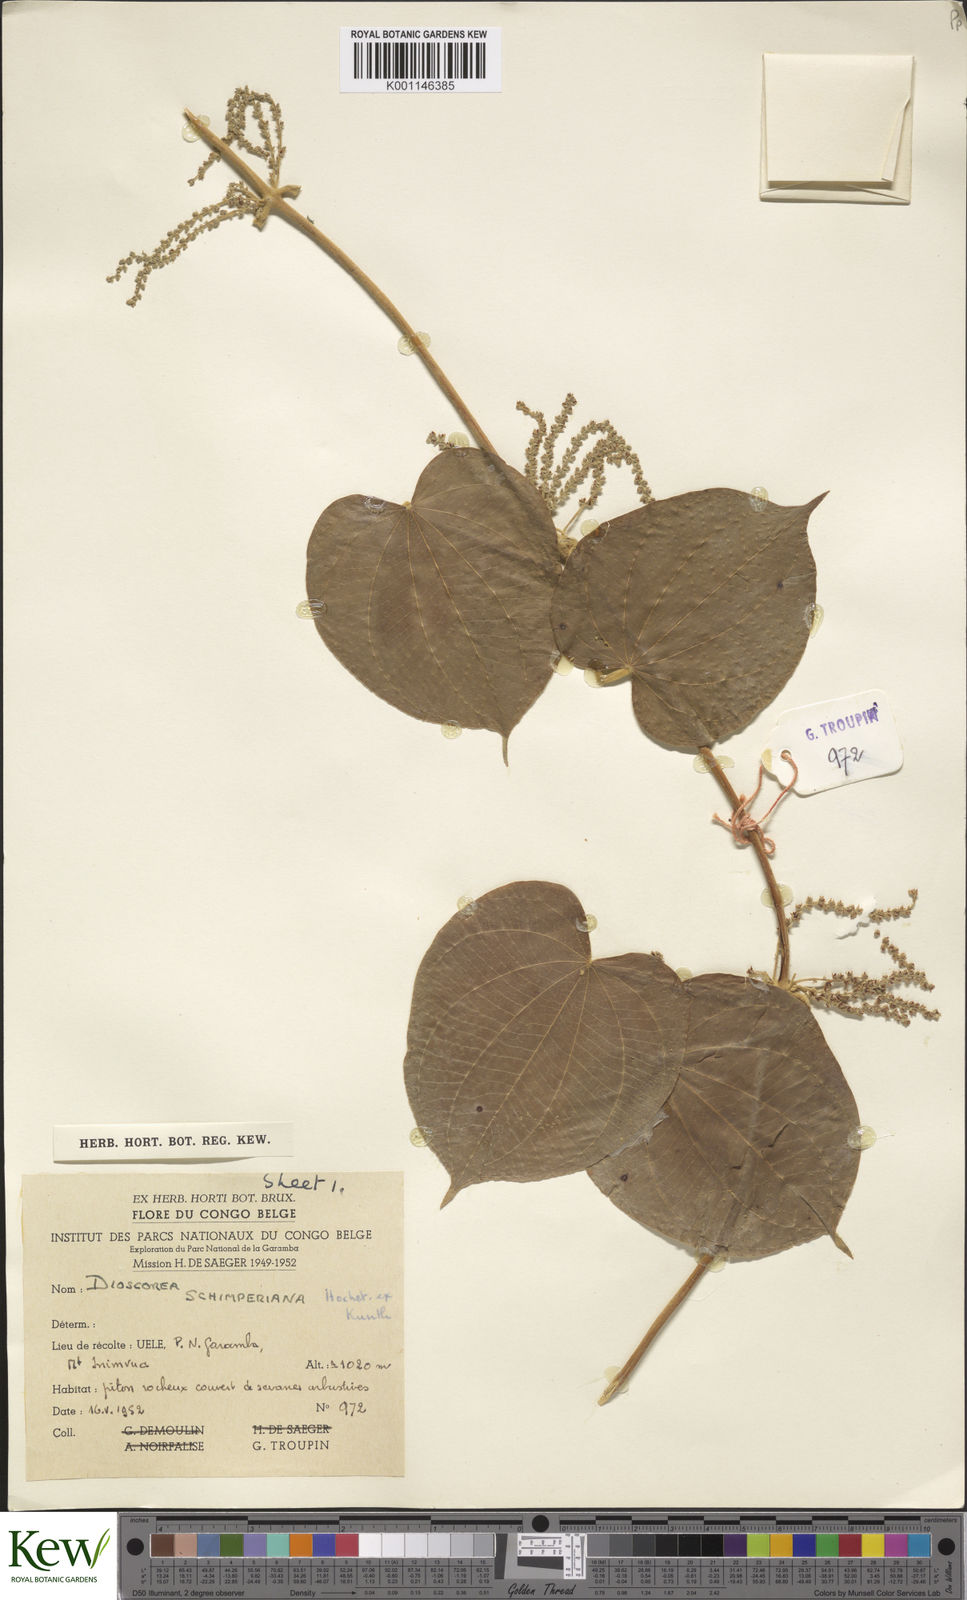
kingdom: Plantae
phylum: Tracheophyta
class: Liliopsida
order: Dioscoreales
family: Dioscoreaceae
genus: Dioscorea
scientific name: Dioscorea schimperiana
